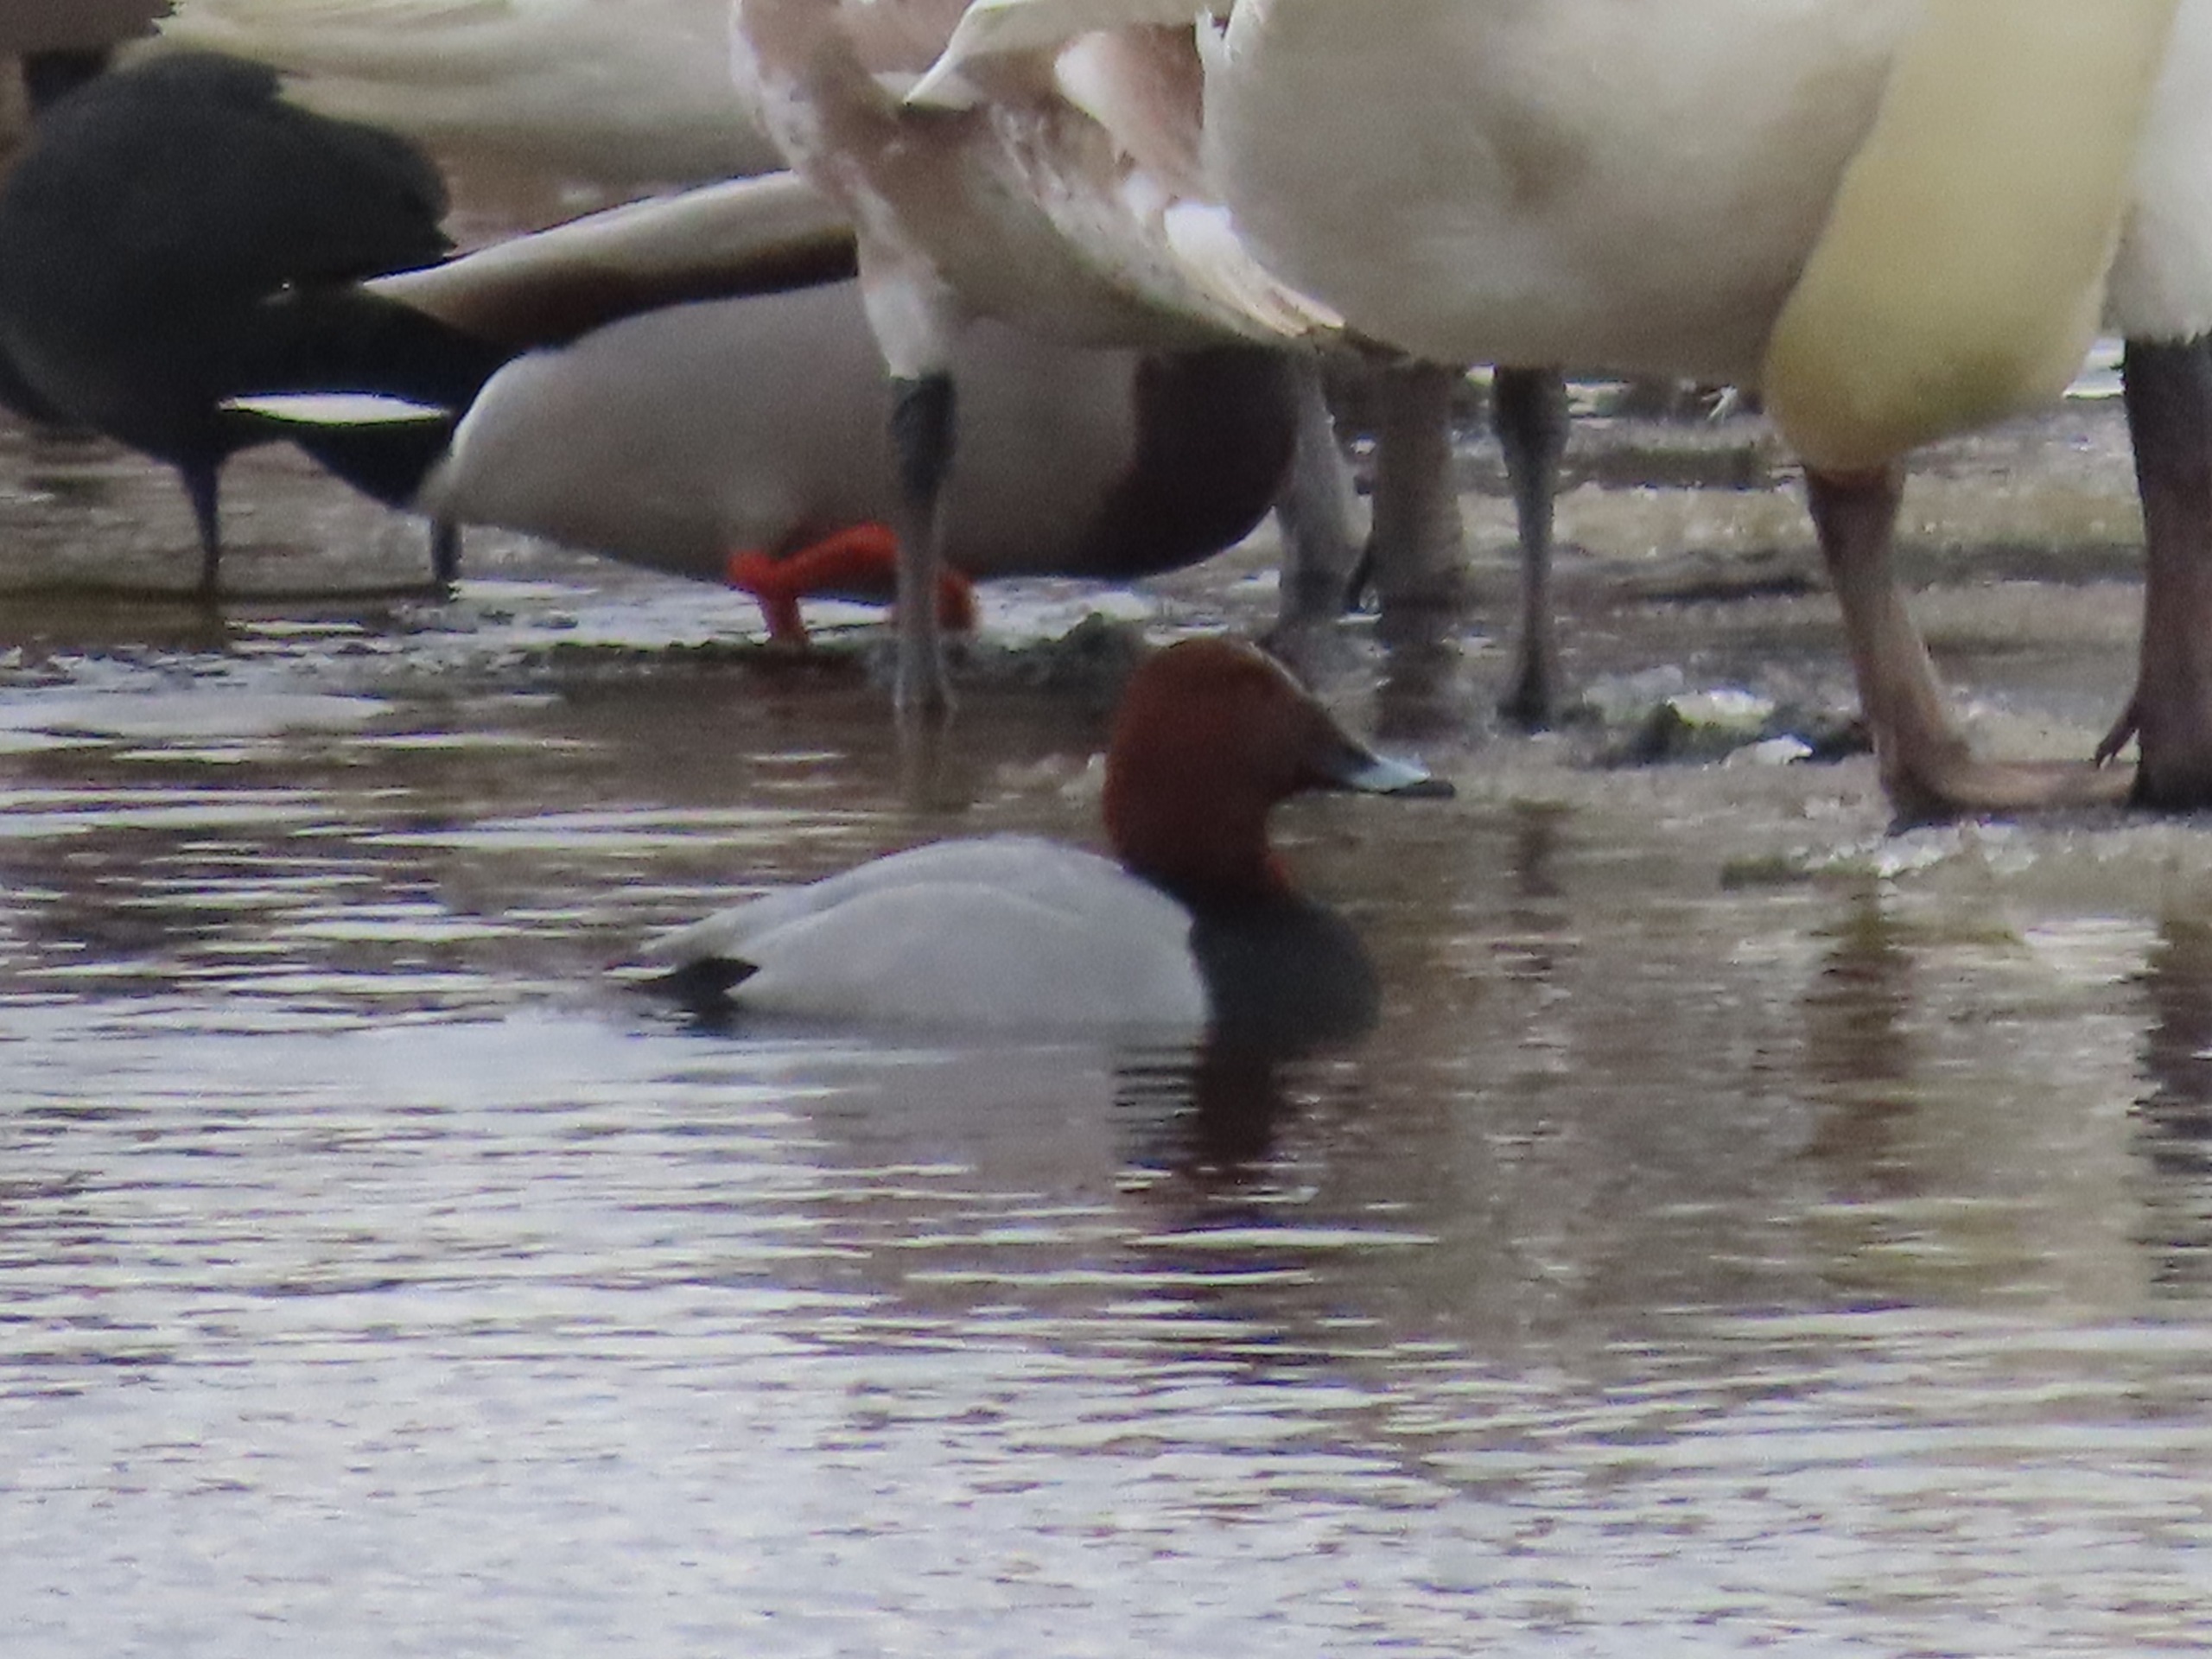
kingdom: Animalia
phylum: Chordata
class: Aves
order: Anseriformes
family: Anatidae
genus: Aythya
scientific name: Aythya ferina
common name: Taffeland
